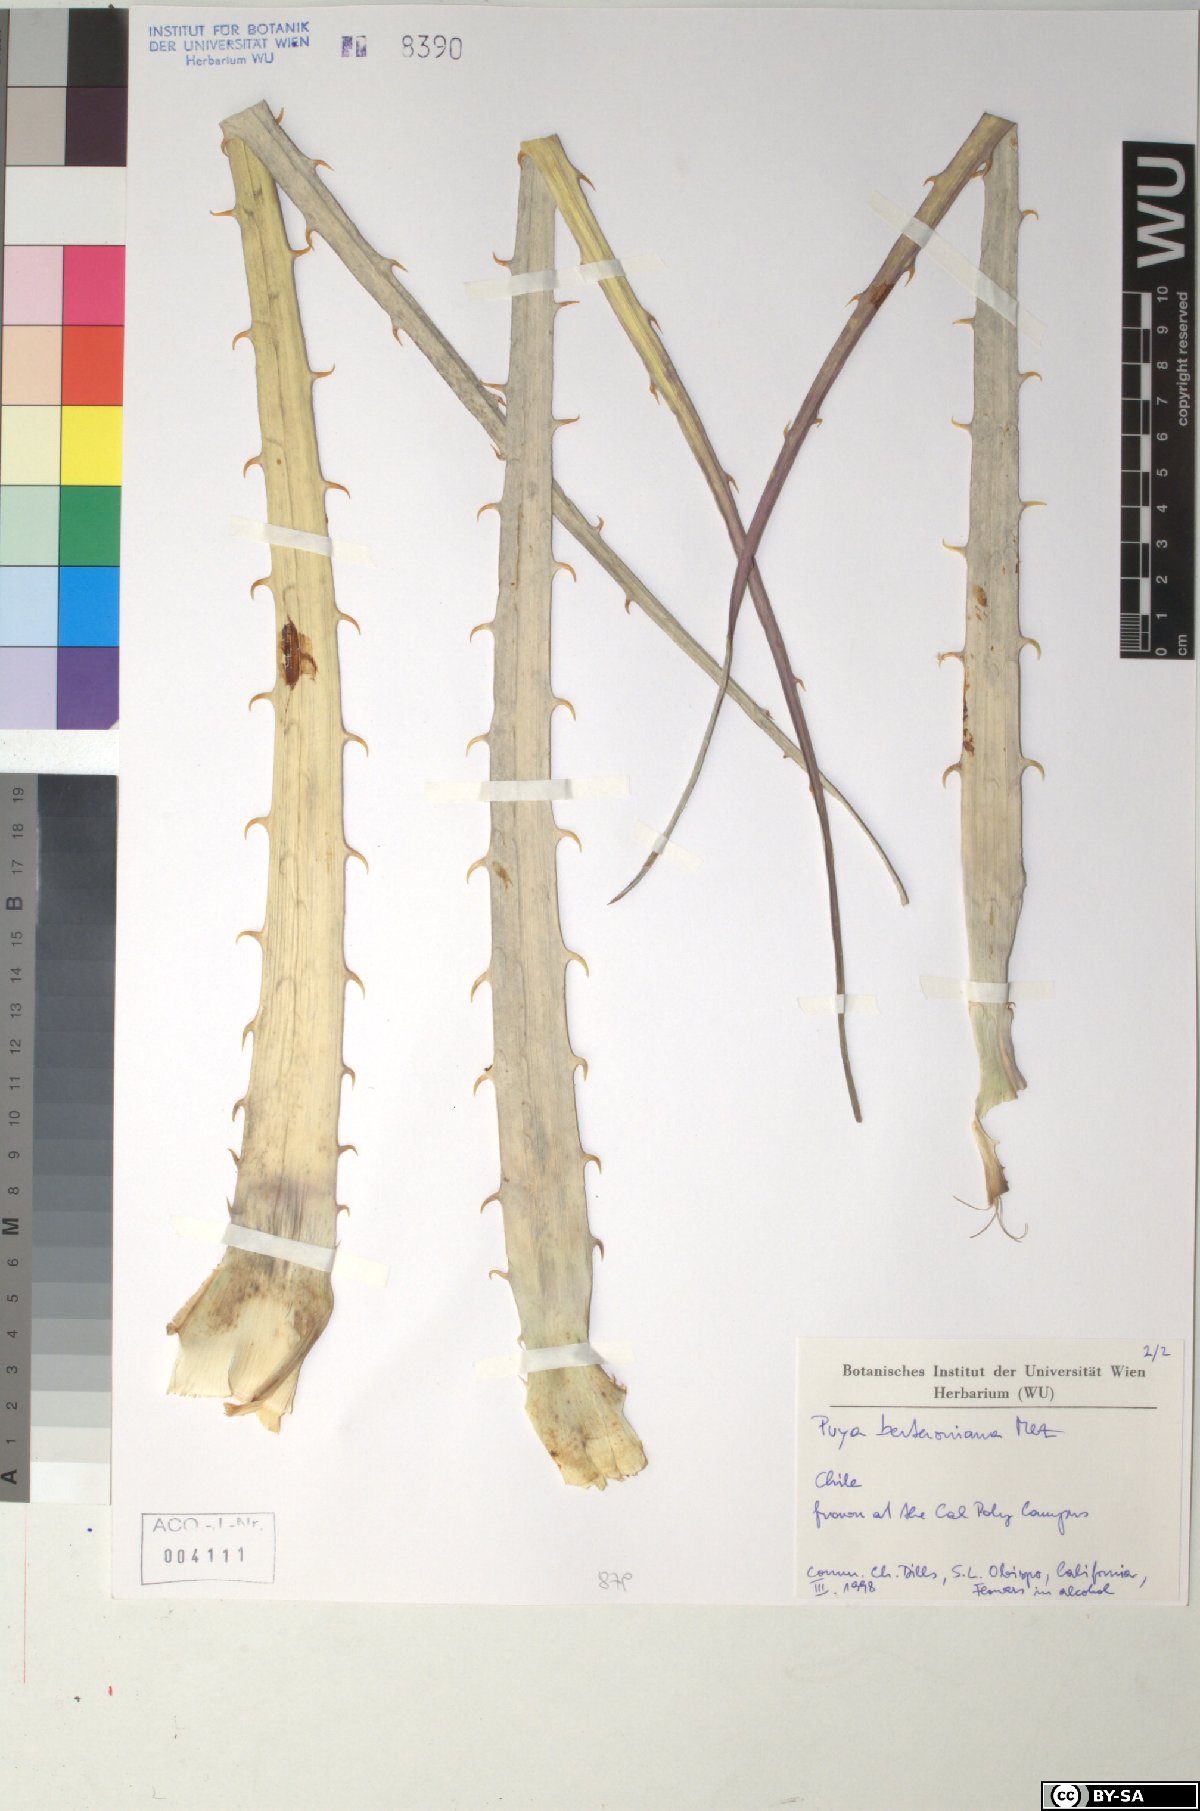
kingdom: Plantae
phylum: Tracheophyta
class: Liliopsida
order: Poales
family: Bromeliaceae
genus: Puya
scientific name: Puya
